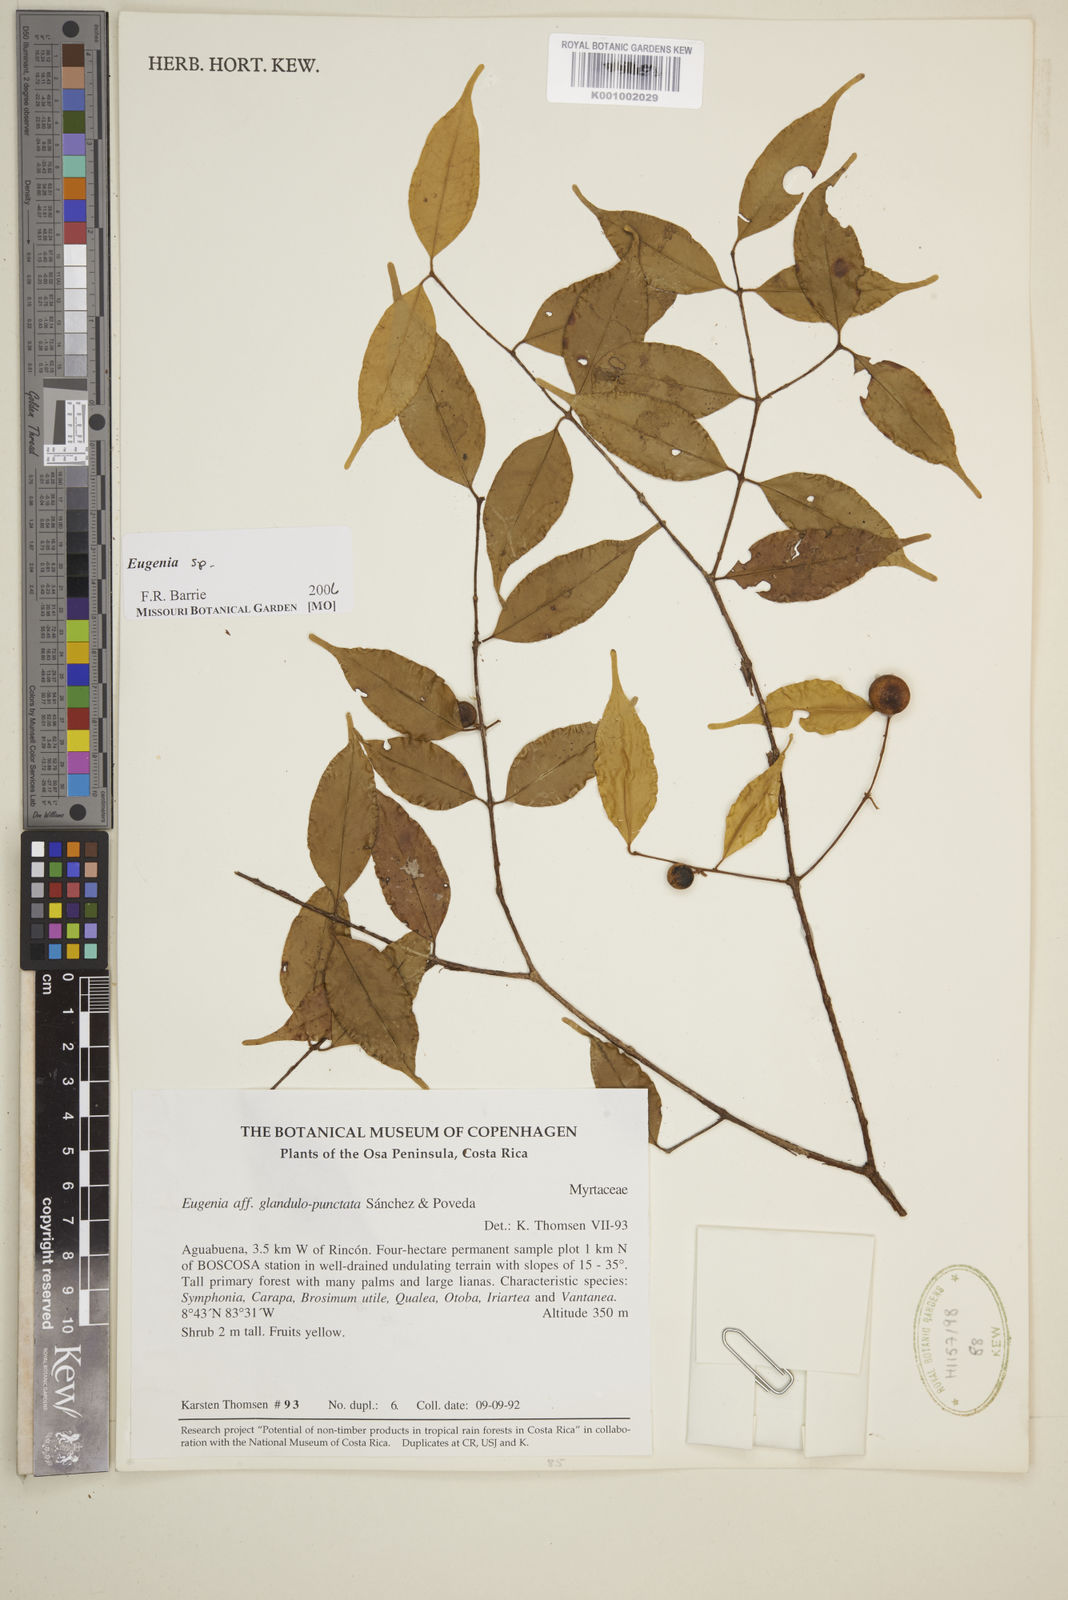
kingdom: Plantae
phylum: Tracheophyta
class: Magnoliopsida
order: Myrtales
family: Myrtaceae
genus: Eugenia
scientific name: Eugenia
